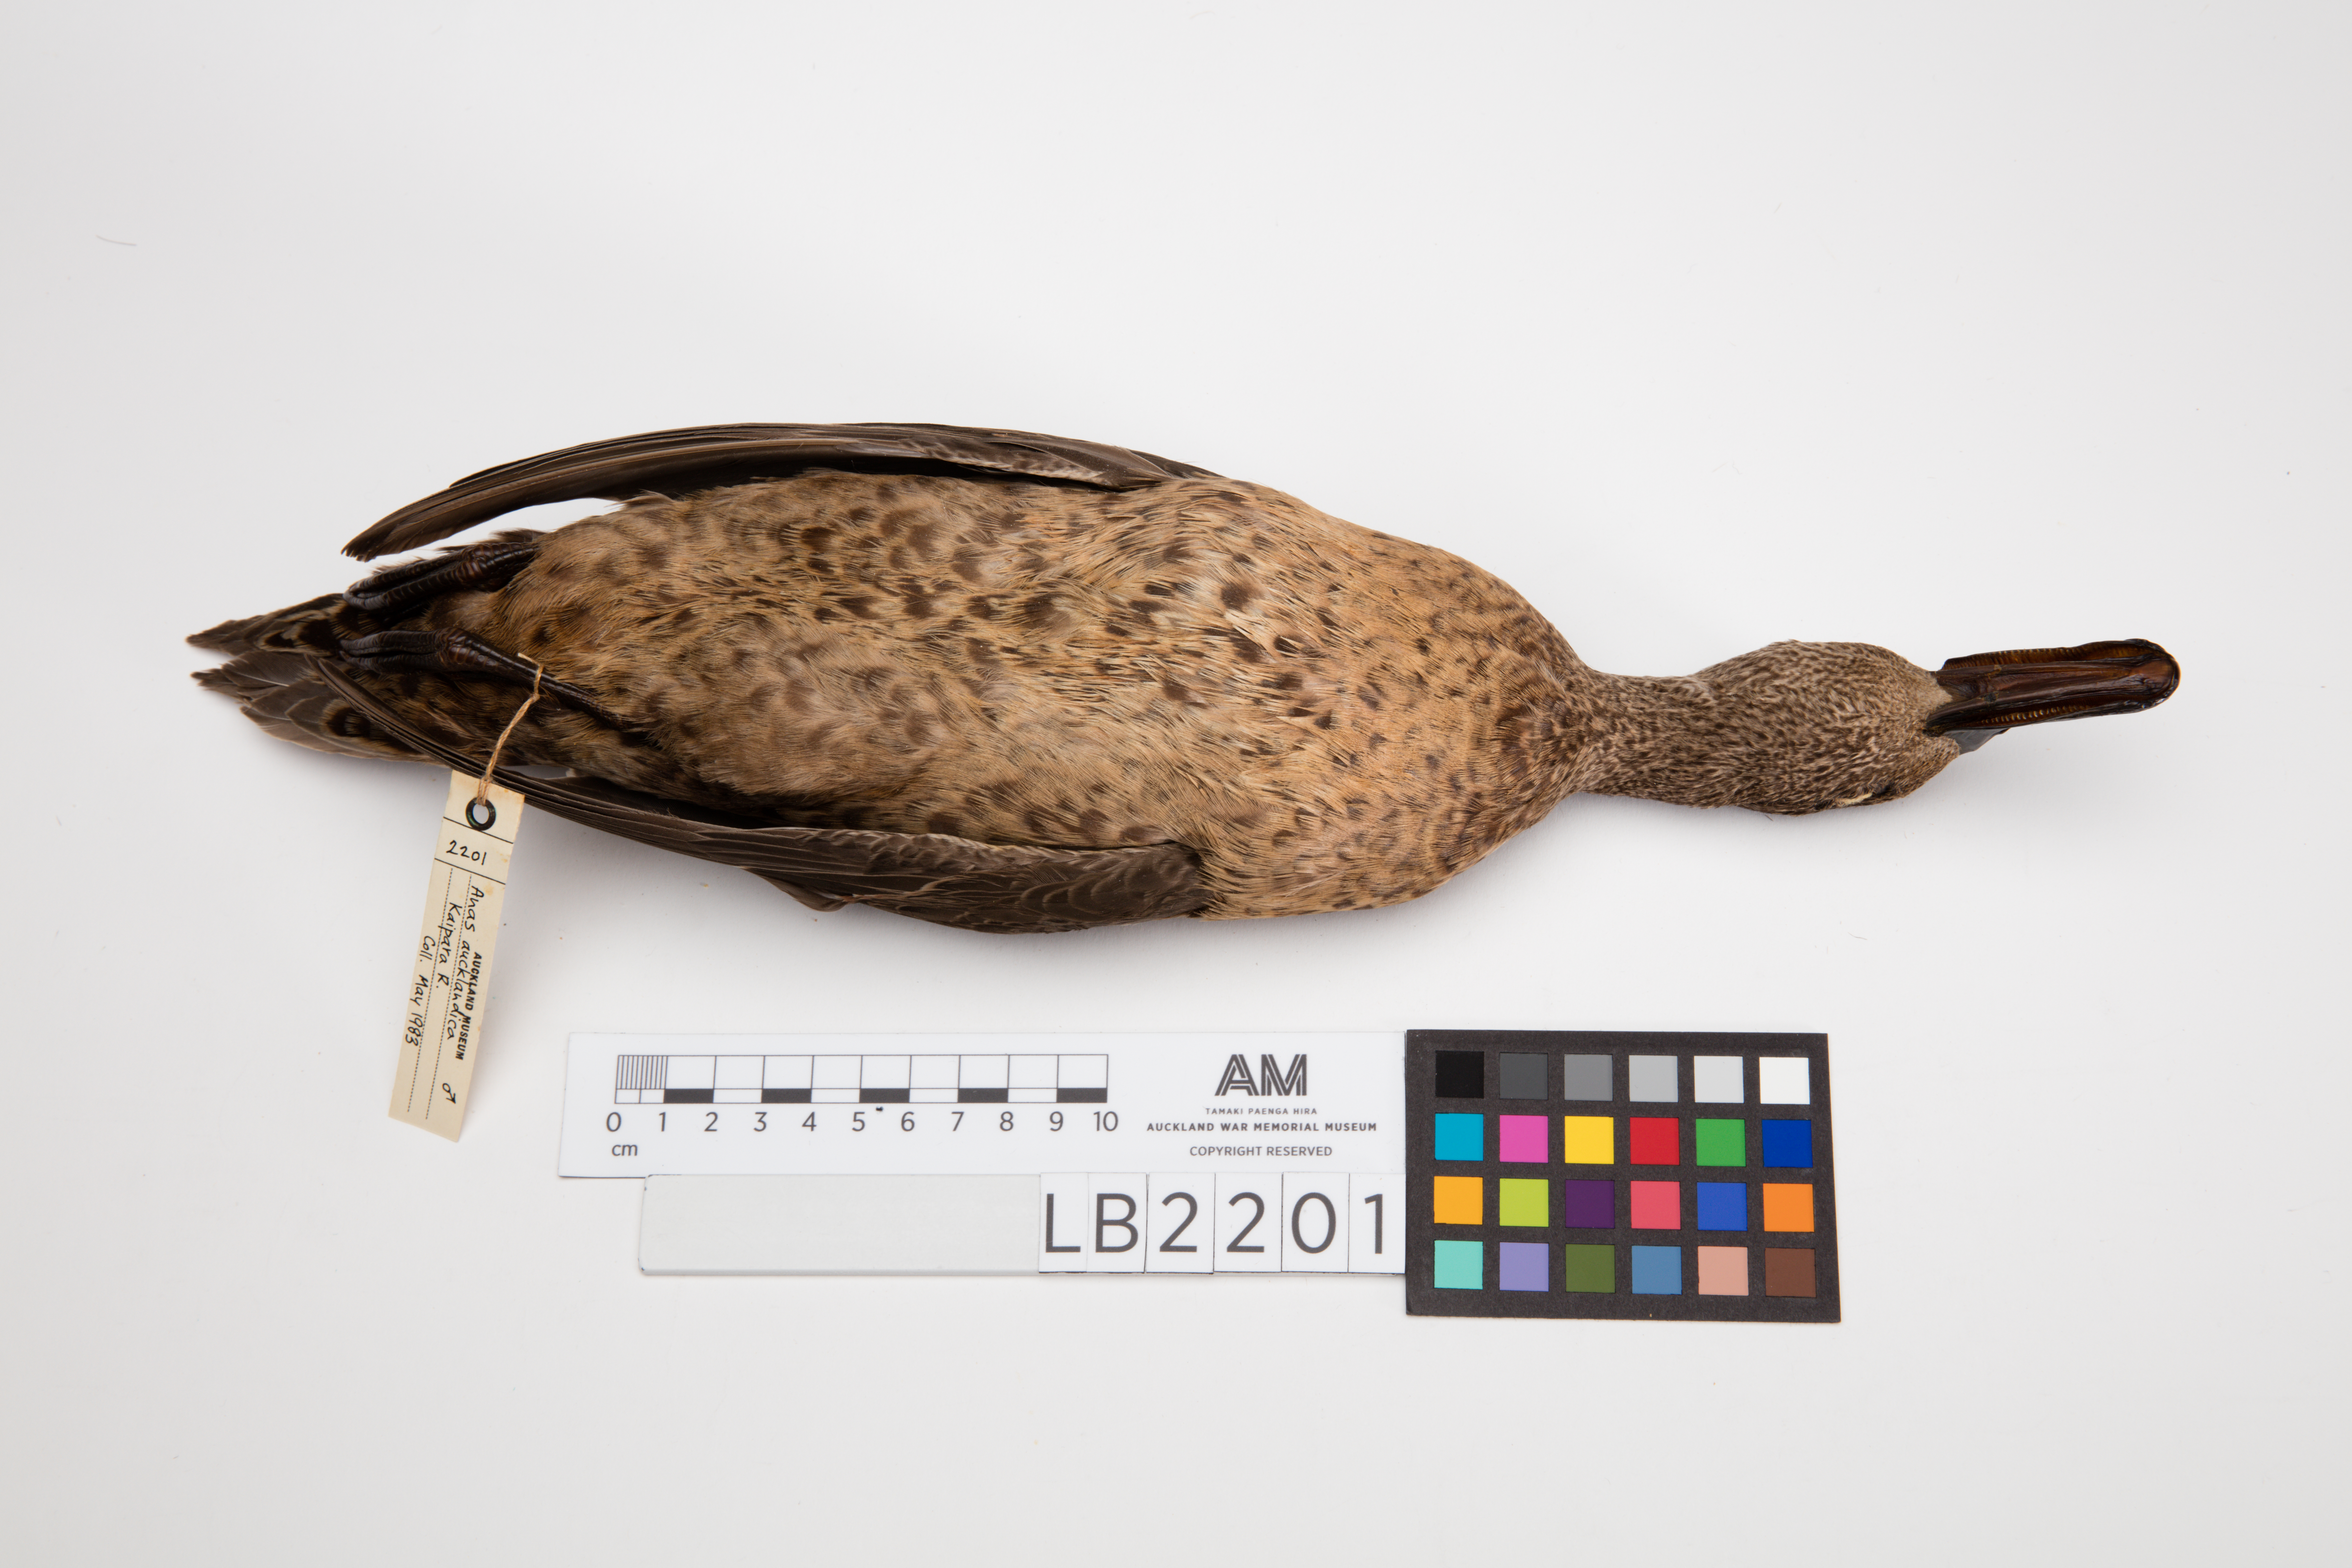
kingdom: Animalia
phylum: Chordata
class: Aves
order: Anseriformes
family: Anatidae
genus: Anas
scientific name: Anas chlorotis
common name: Brown teal
